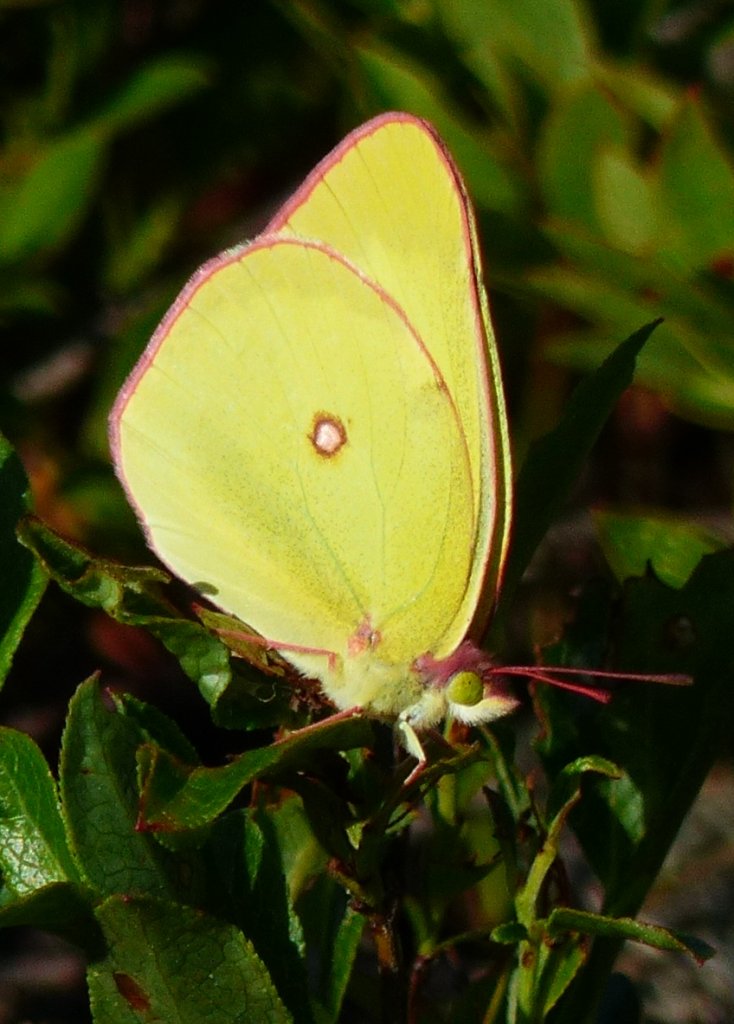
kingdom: Animalia
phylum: Arthropoda
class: Insecta
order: Lepidoptera
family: Pieridae
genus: Colias
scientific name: Colias interior
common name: Pink-edged Sulphur
